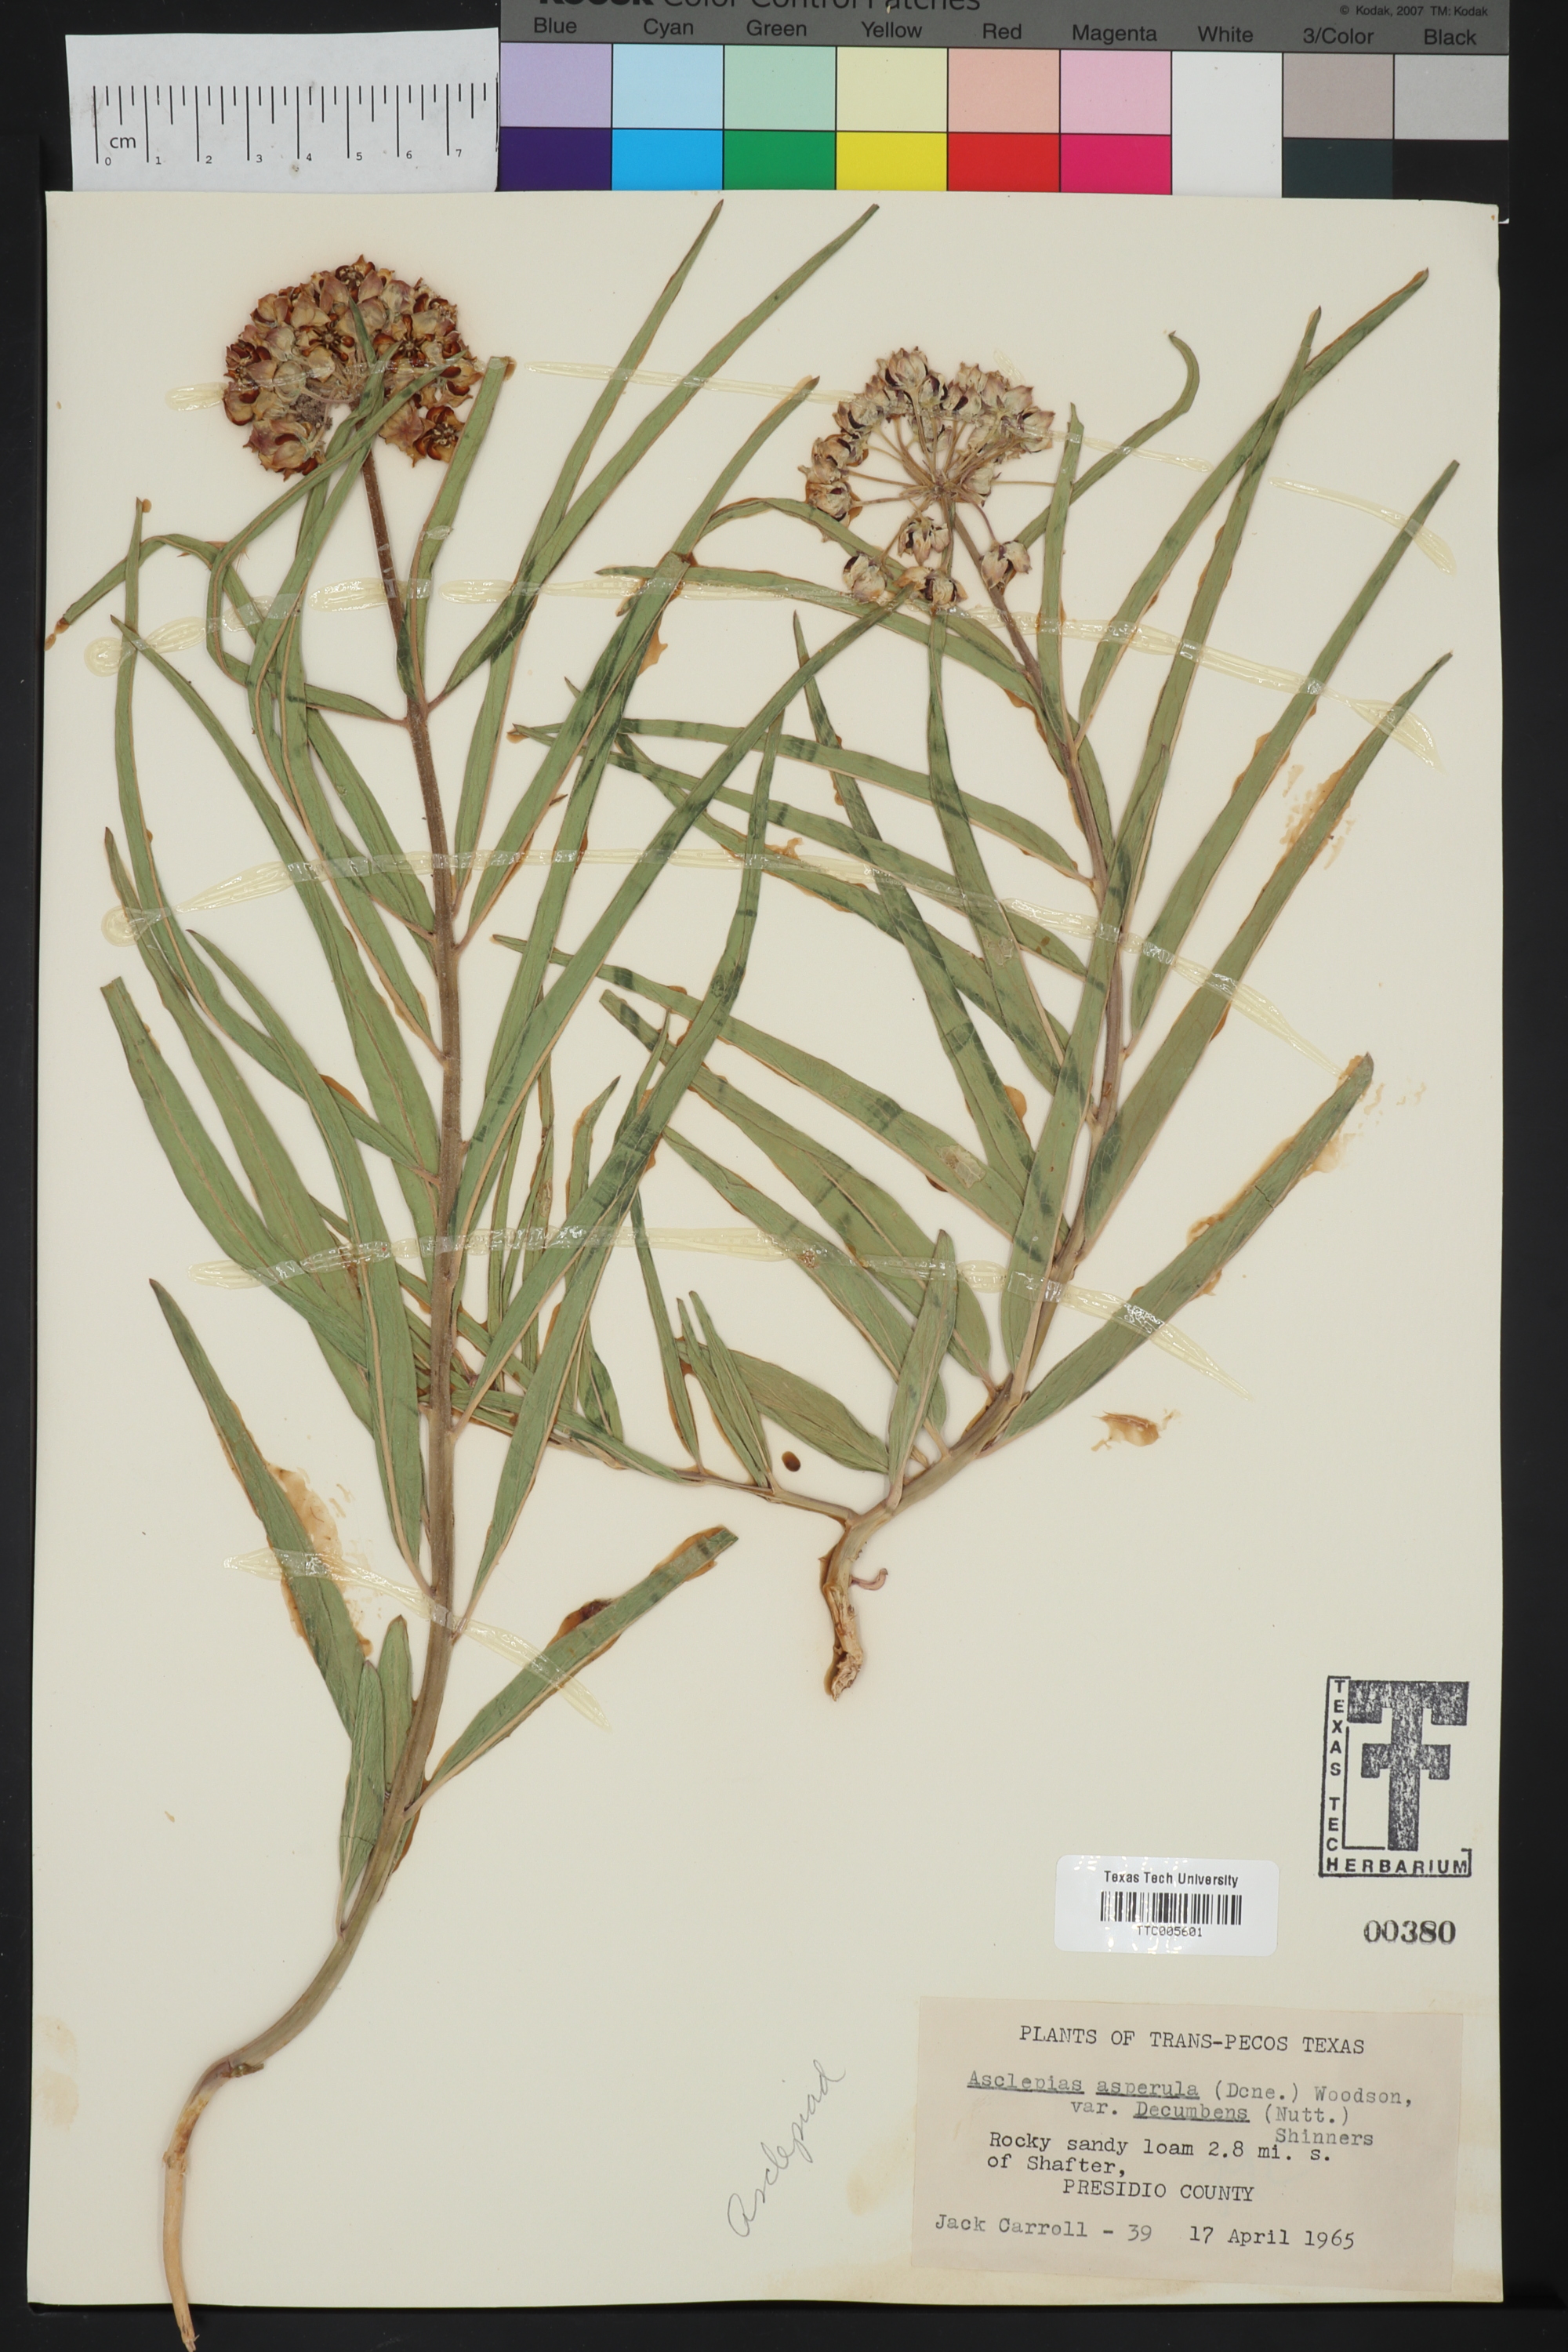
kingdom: Plantae
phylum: Tracheophyta
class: Magnoliopsida
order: Gentianales
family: Apocynaceae
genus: Asclepias
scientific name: Asclepias asperula
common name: Antelope horns
